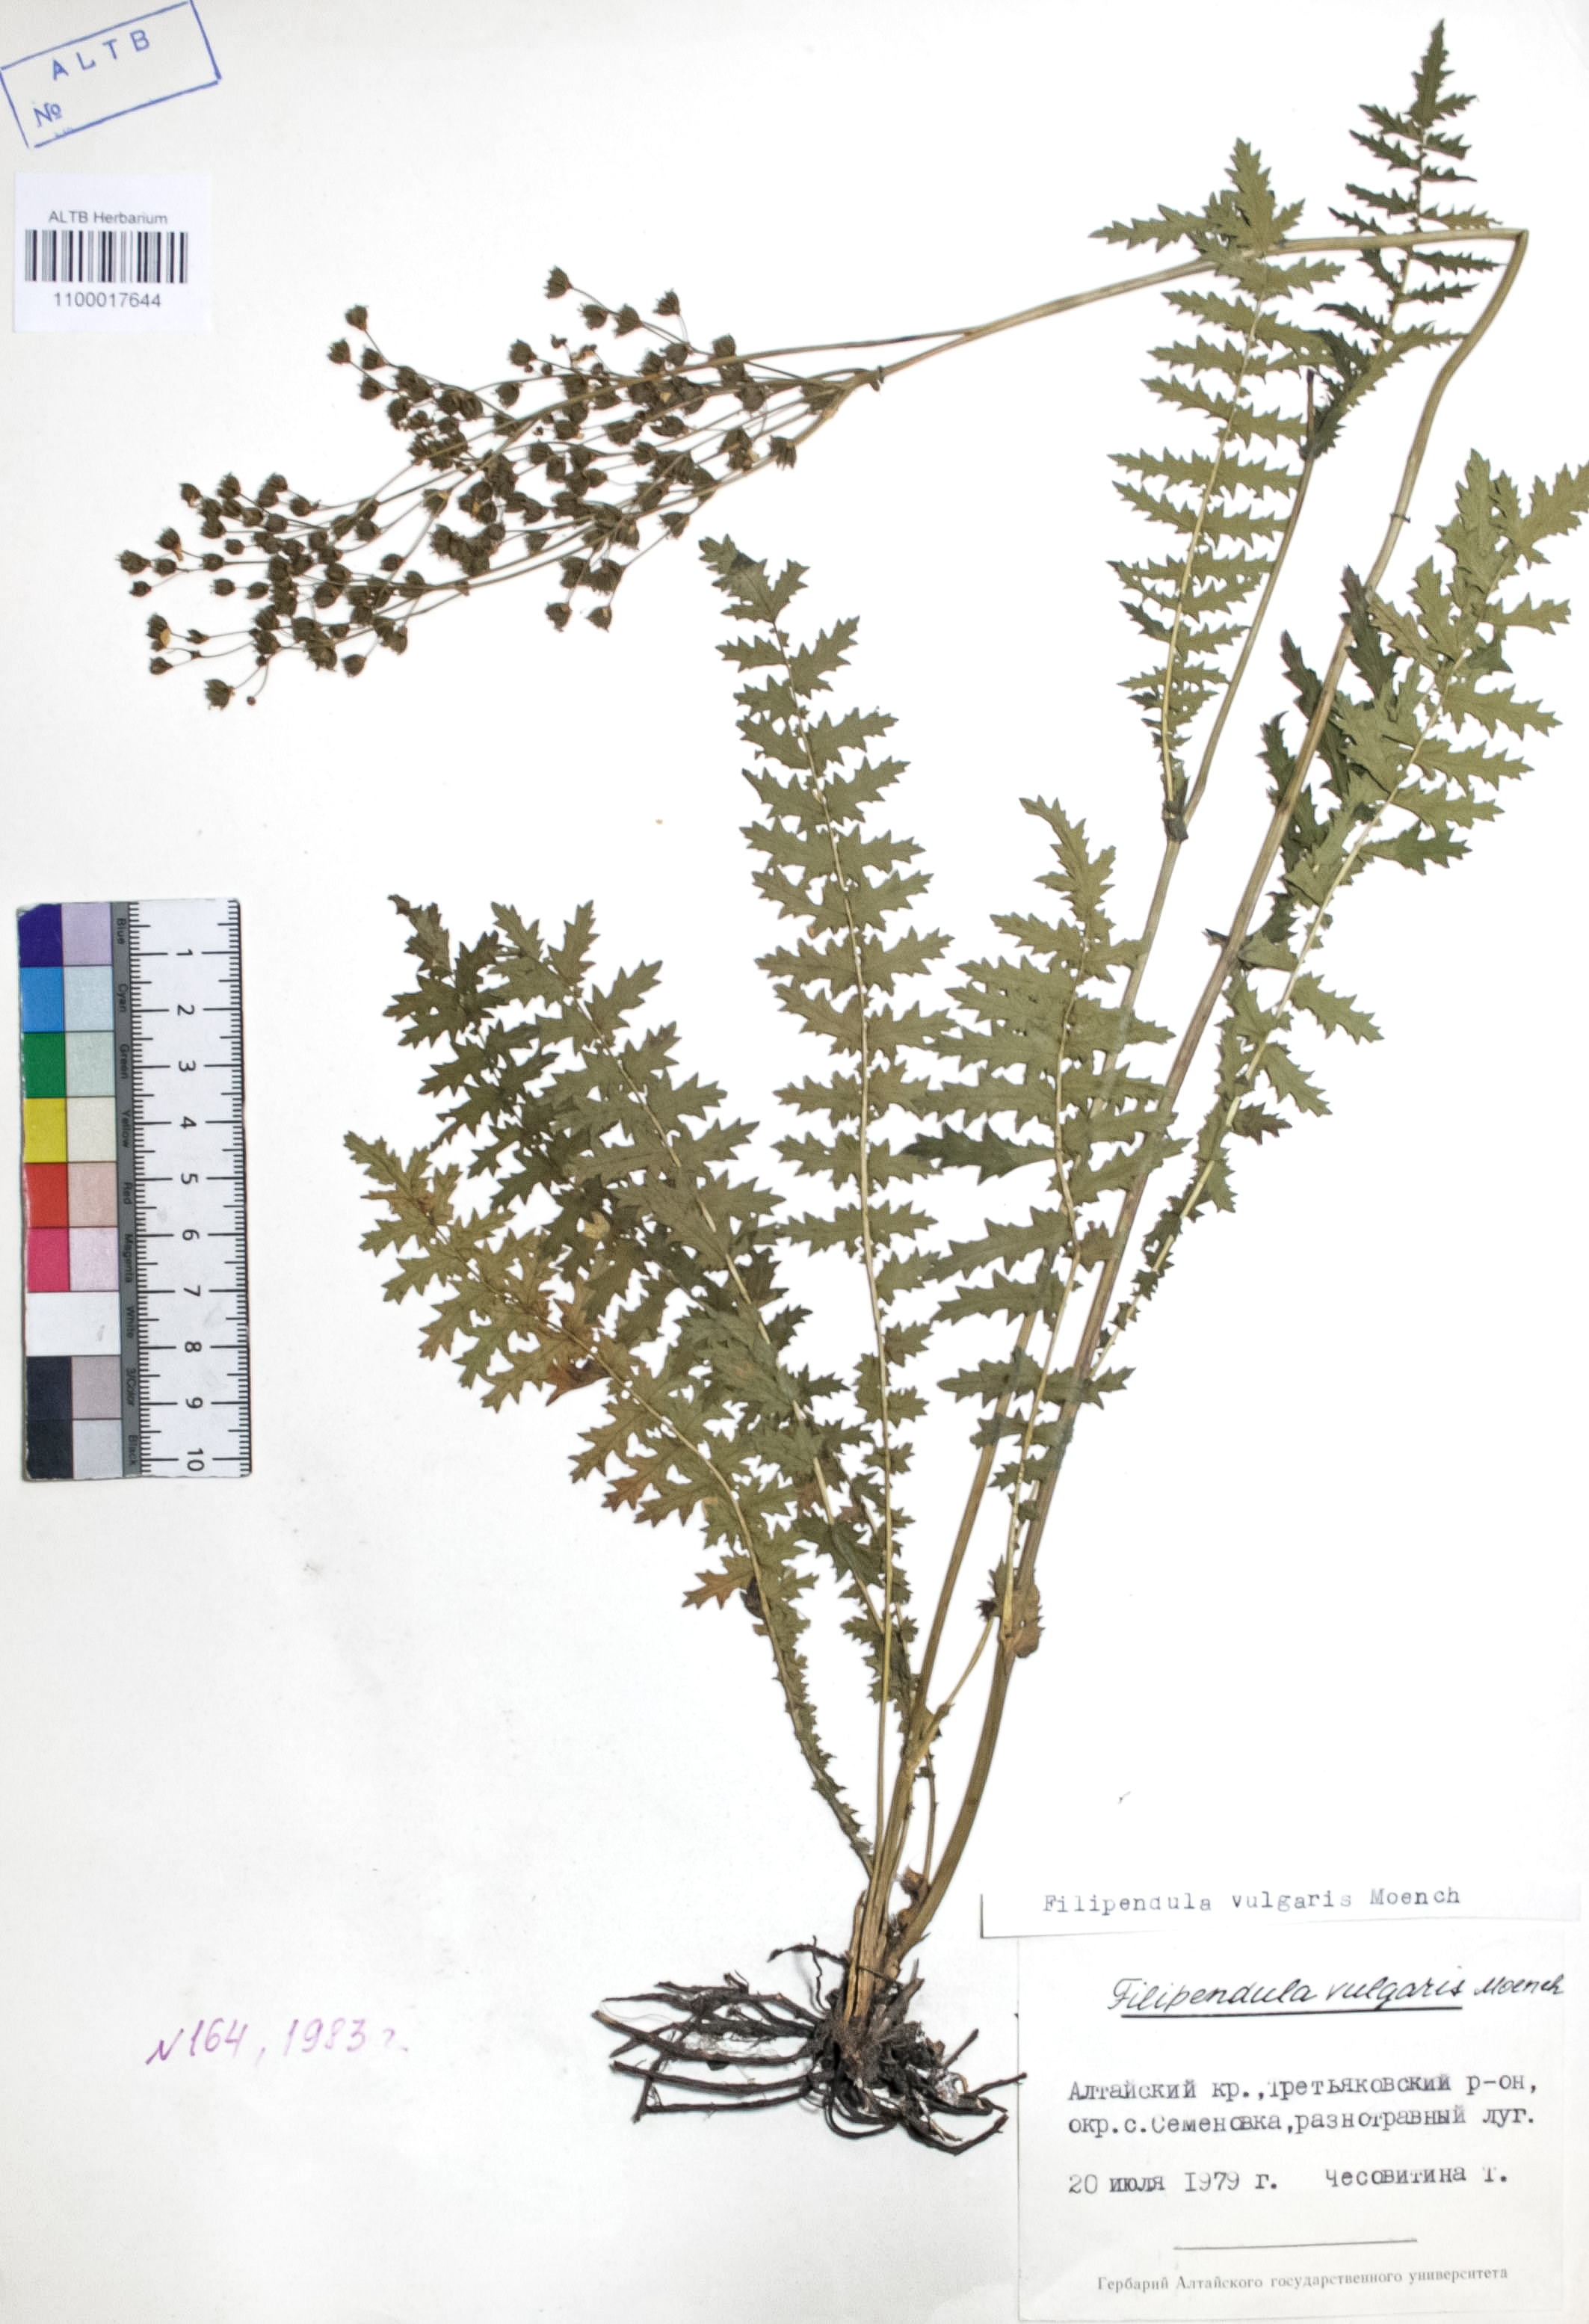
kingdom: Plantae
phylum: Tracheophyta
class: Magnoliopsida
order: Rosales
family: Rosaceae
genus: Filipendula
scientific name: Filipendula vulgaris
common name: Dropwort
